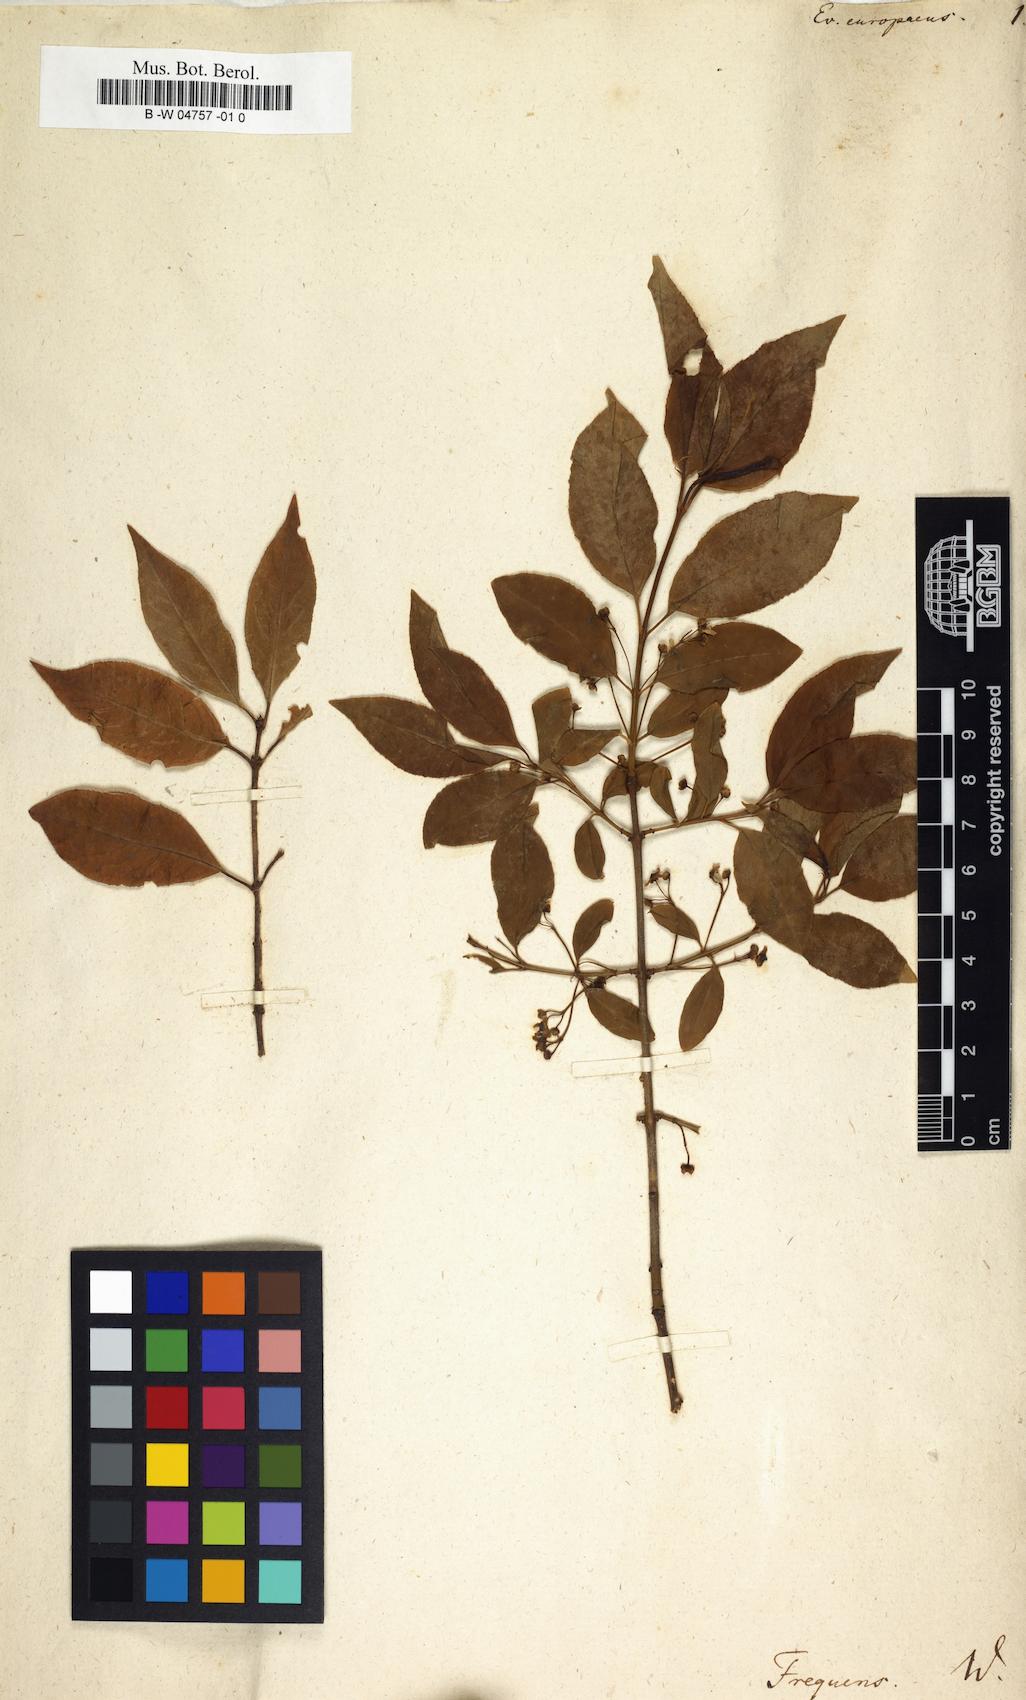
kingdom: Plantae
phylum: Tracheophyta
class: Magnoliopsida
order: Celastrales
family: Celastraceae
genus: Euonymus
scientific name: Euonymus europaeus
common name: Spindle
